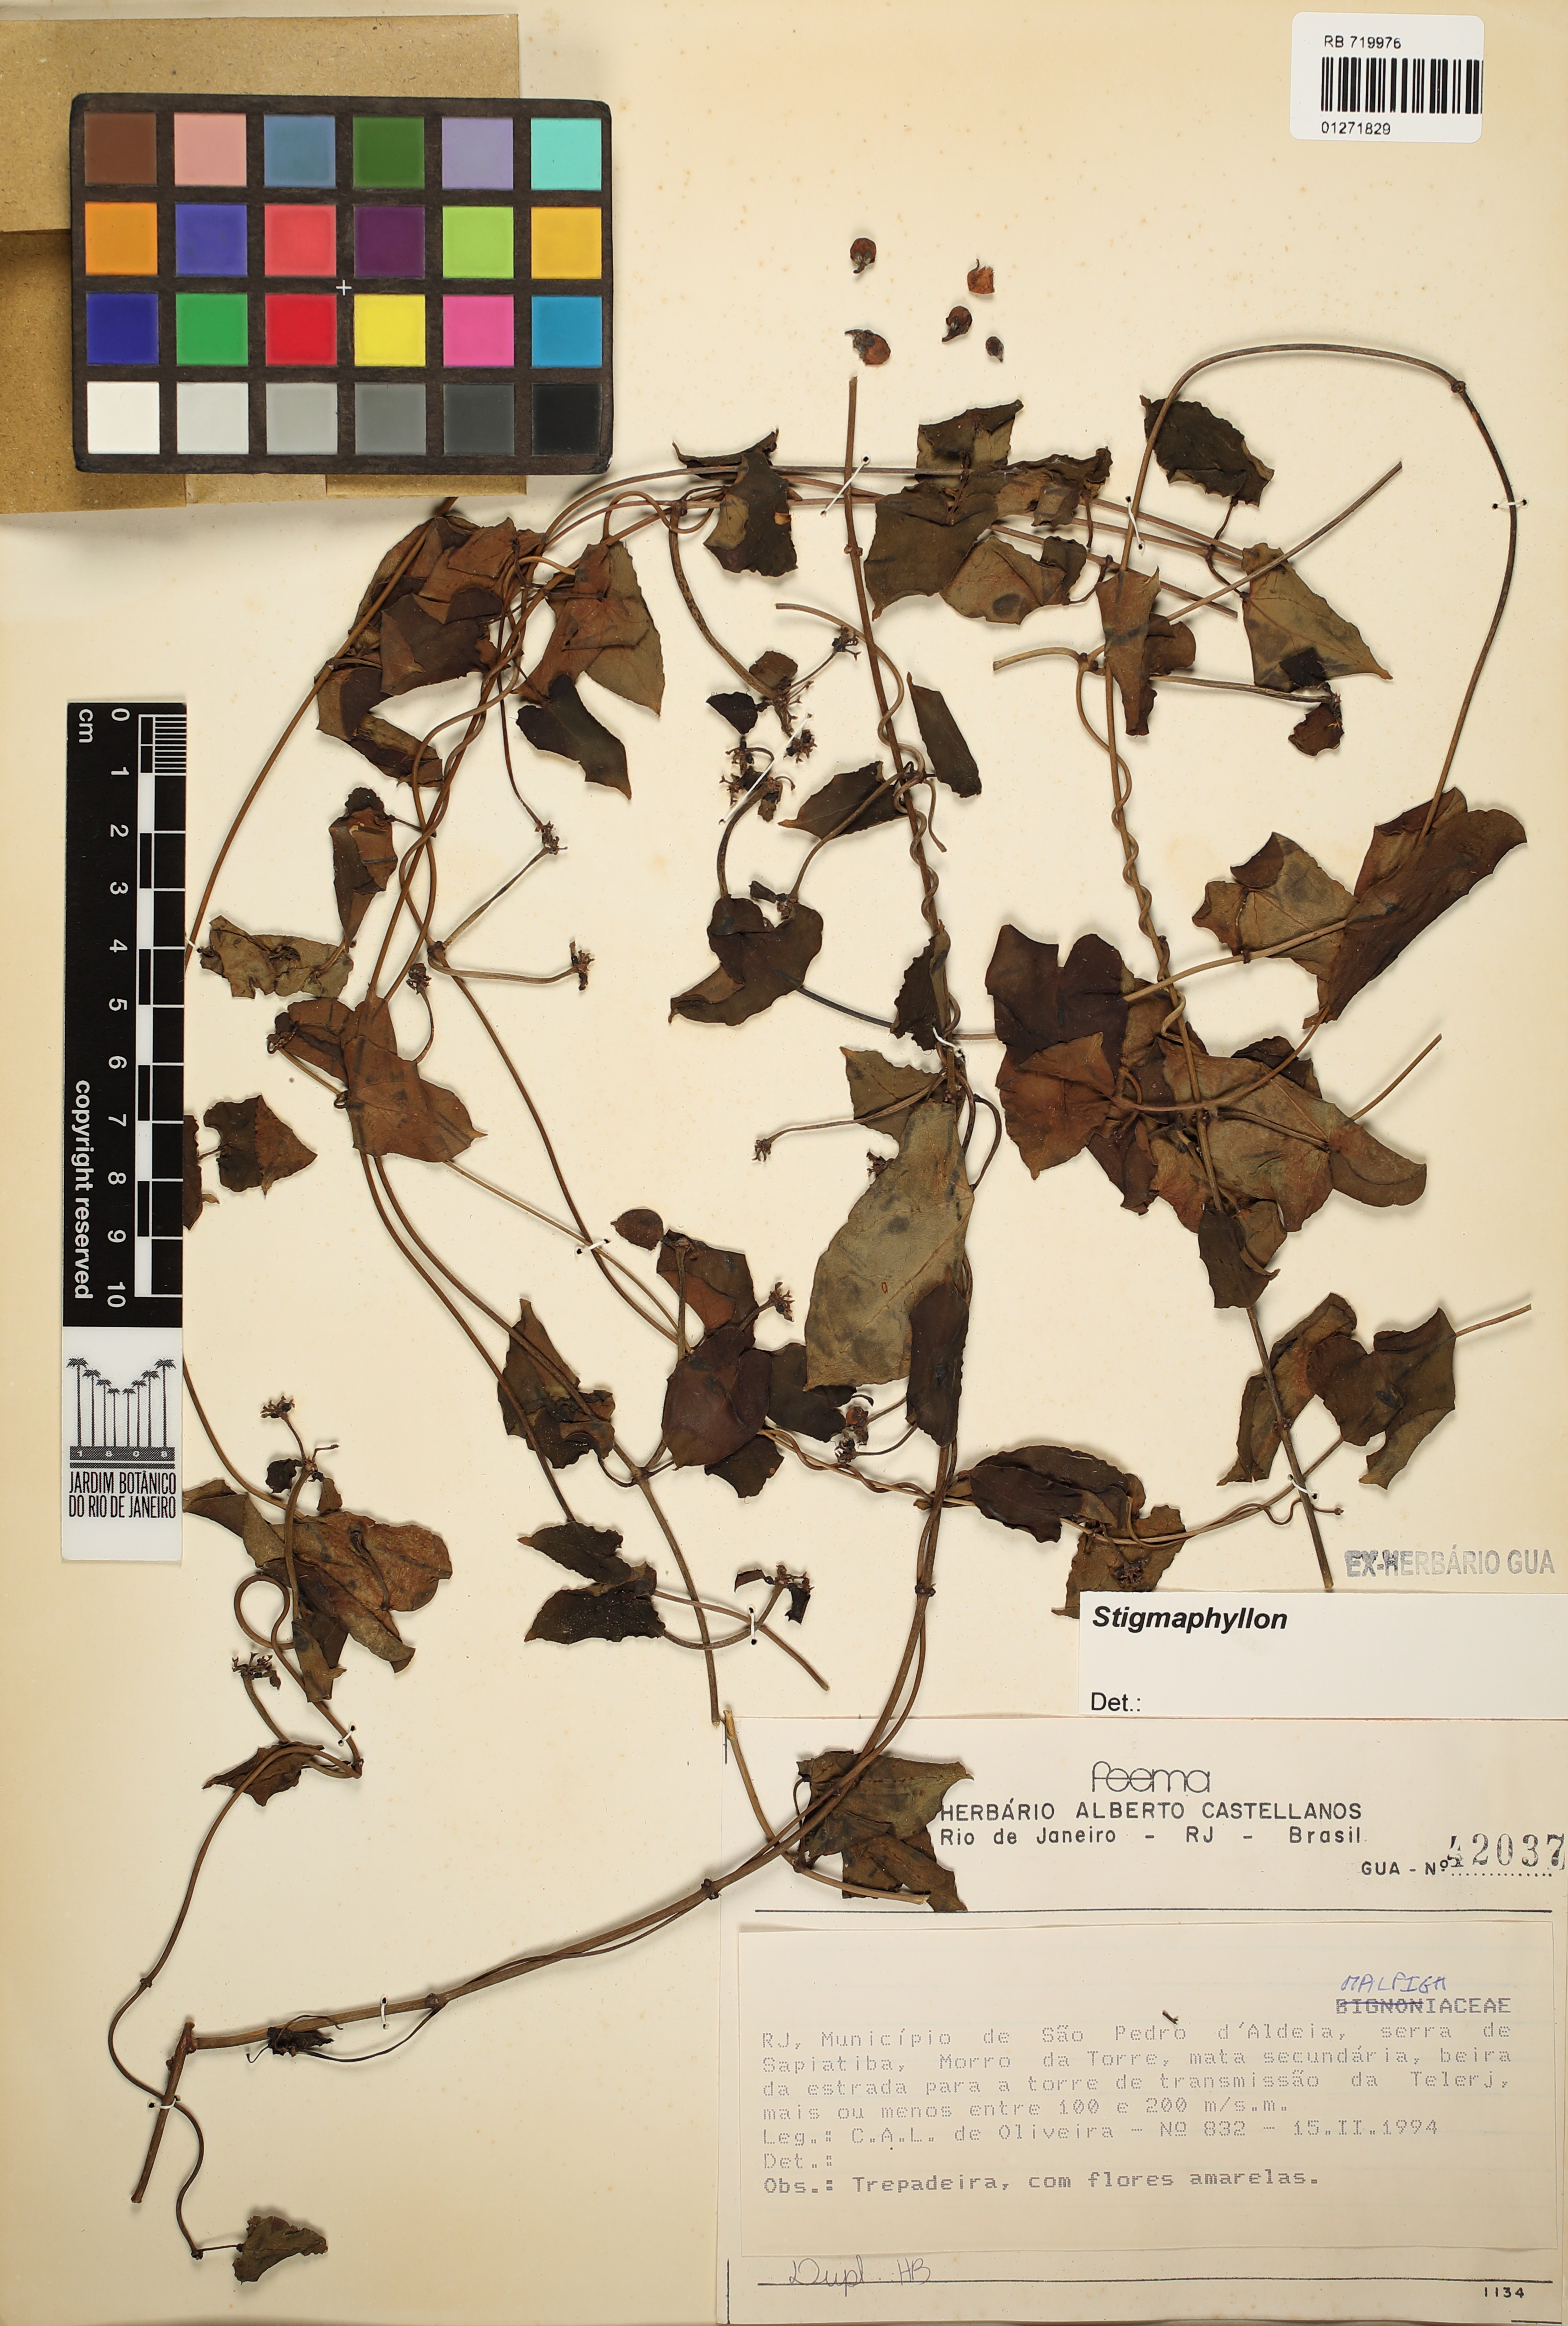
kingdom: Plantae
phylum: Tracheophyta
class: Magnoliopsida
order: Malpighiales
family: Malpighiaceae
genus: Stigmaphyllon
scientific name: Stigmaphyllon
